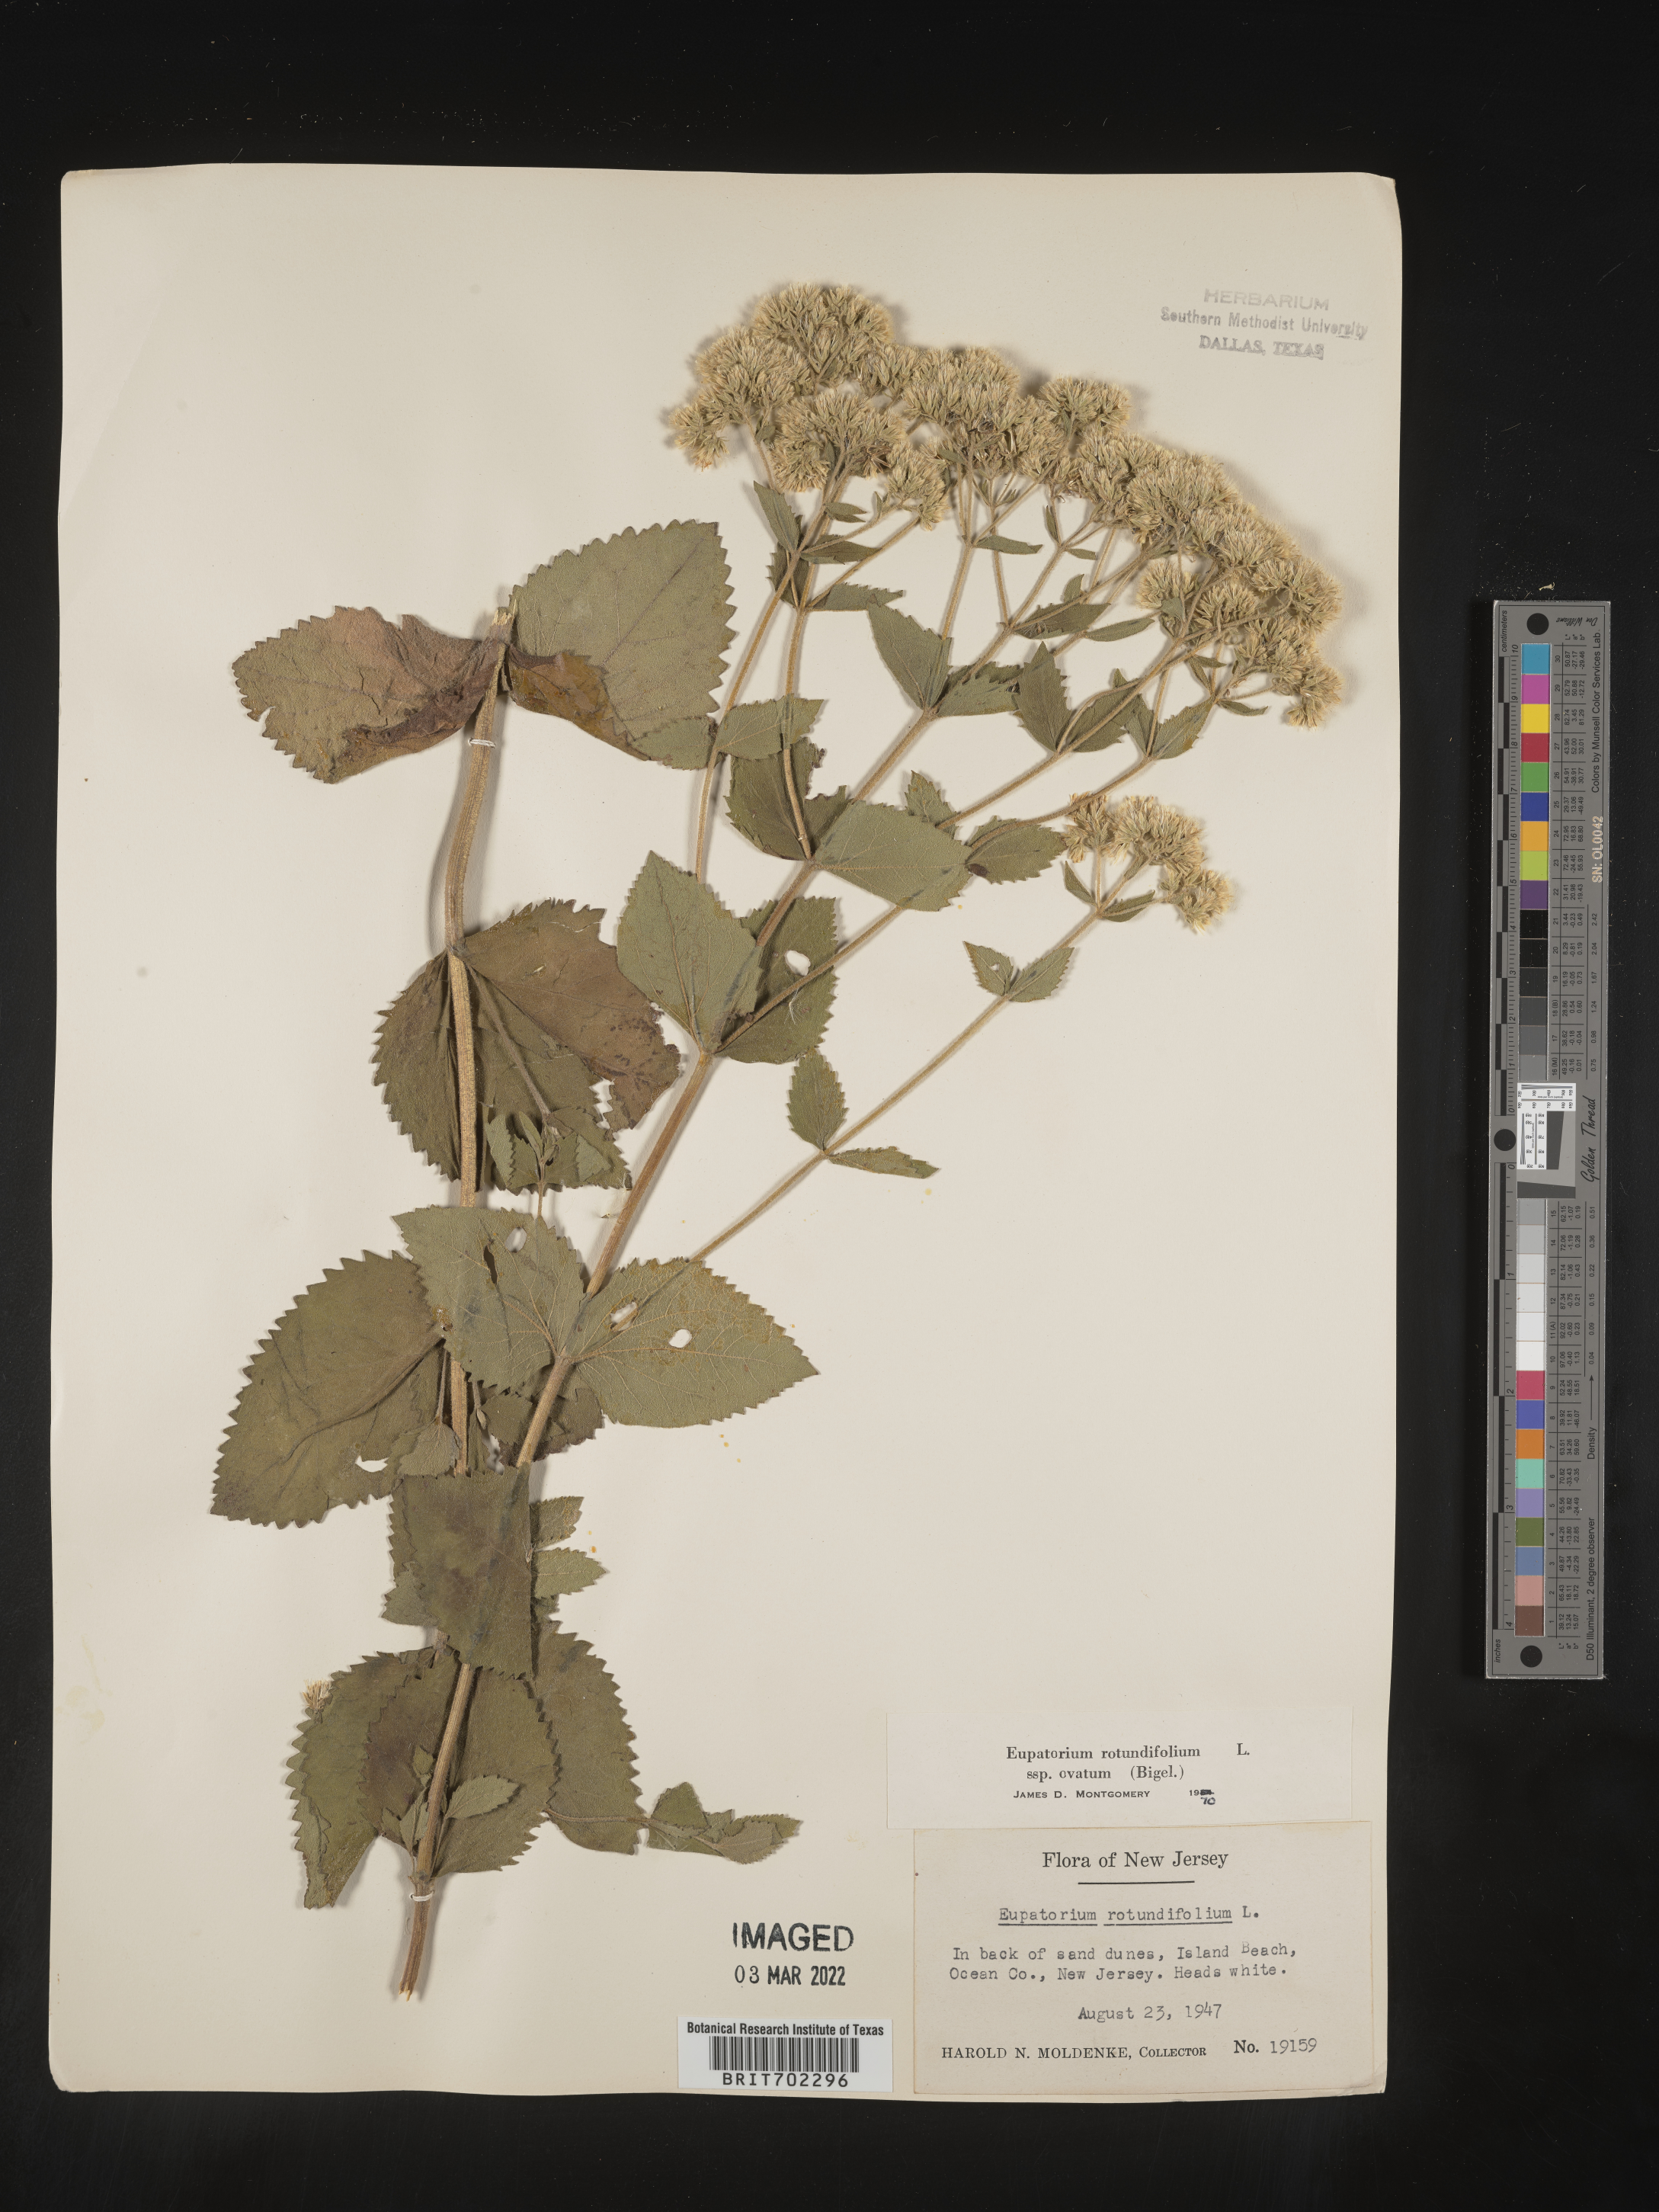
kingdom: Plantae
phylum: Tracheophyta
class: Magnoliopsida
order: Asterales
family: Asteraceae
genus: Eupatorium
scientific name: Eupatorium rotundifolium
